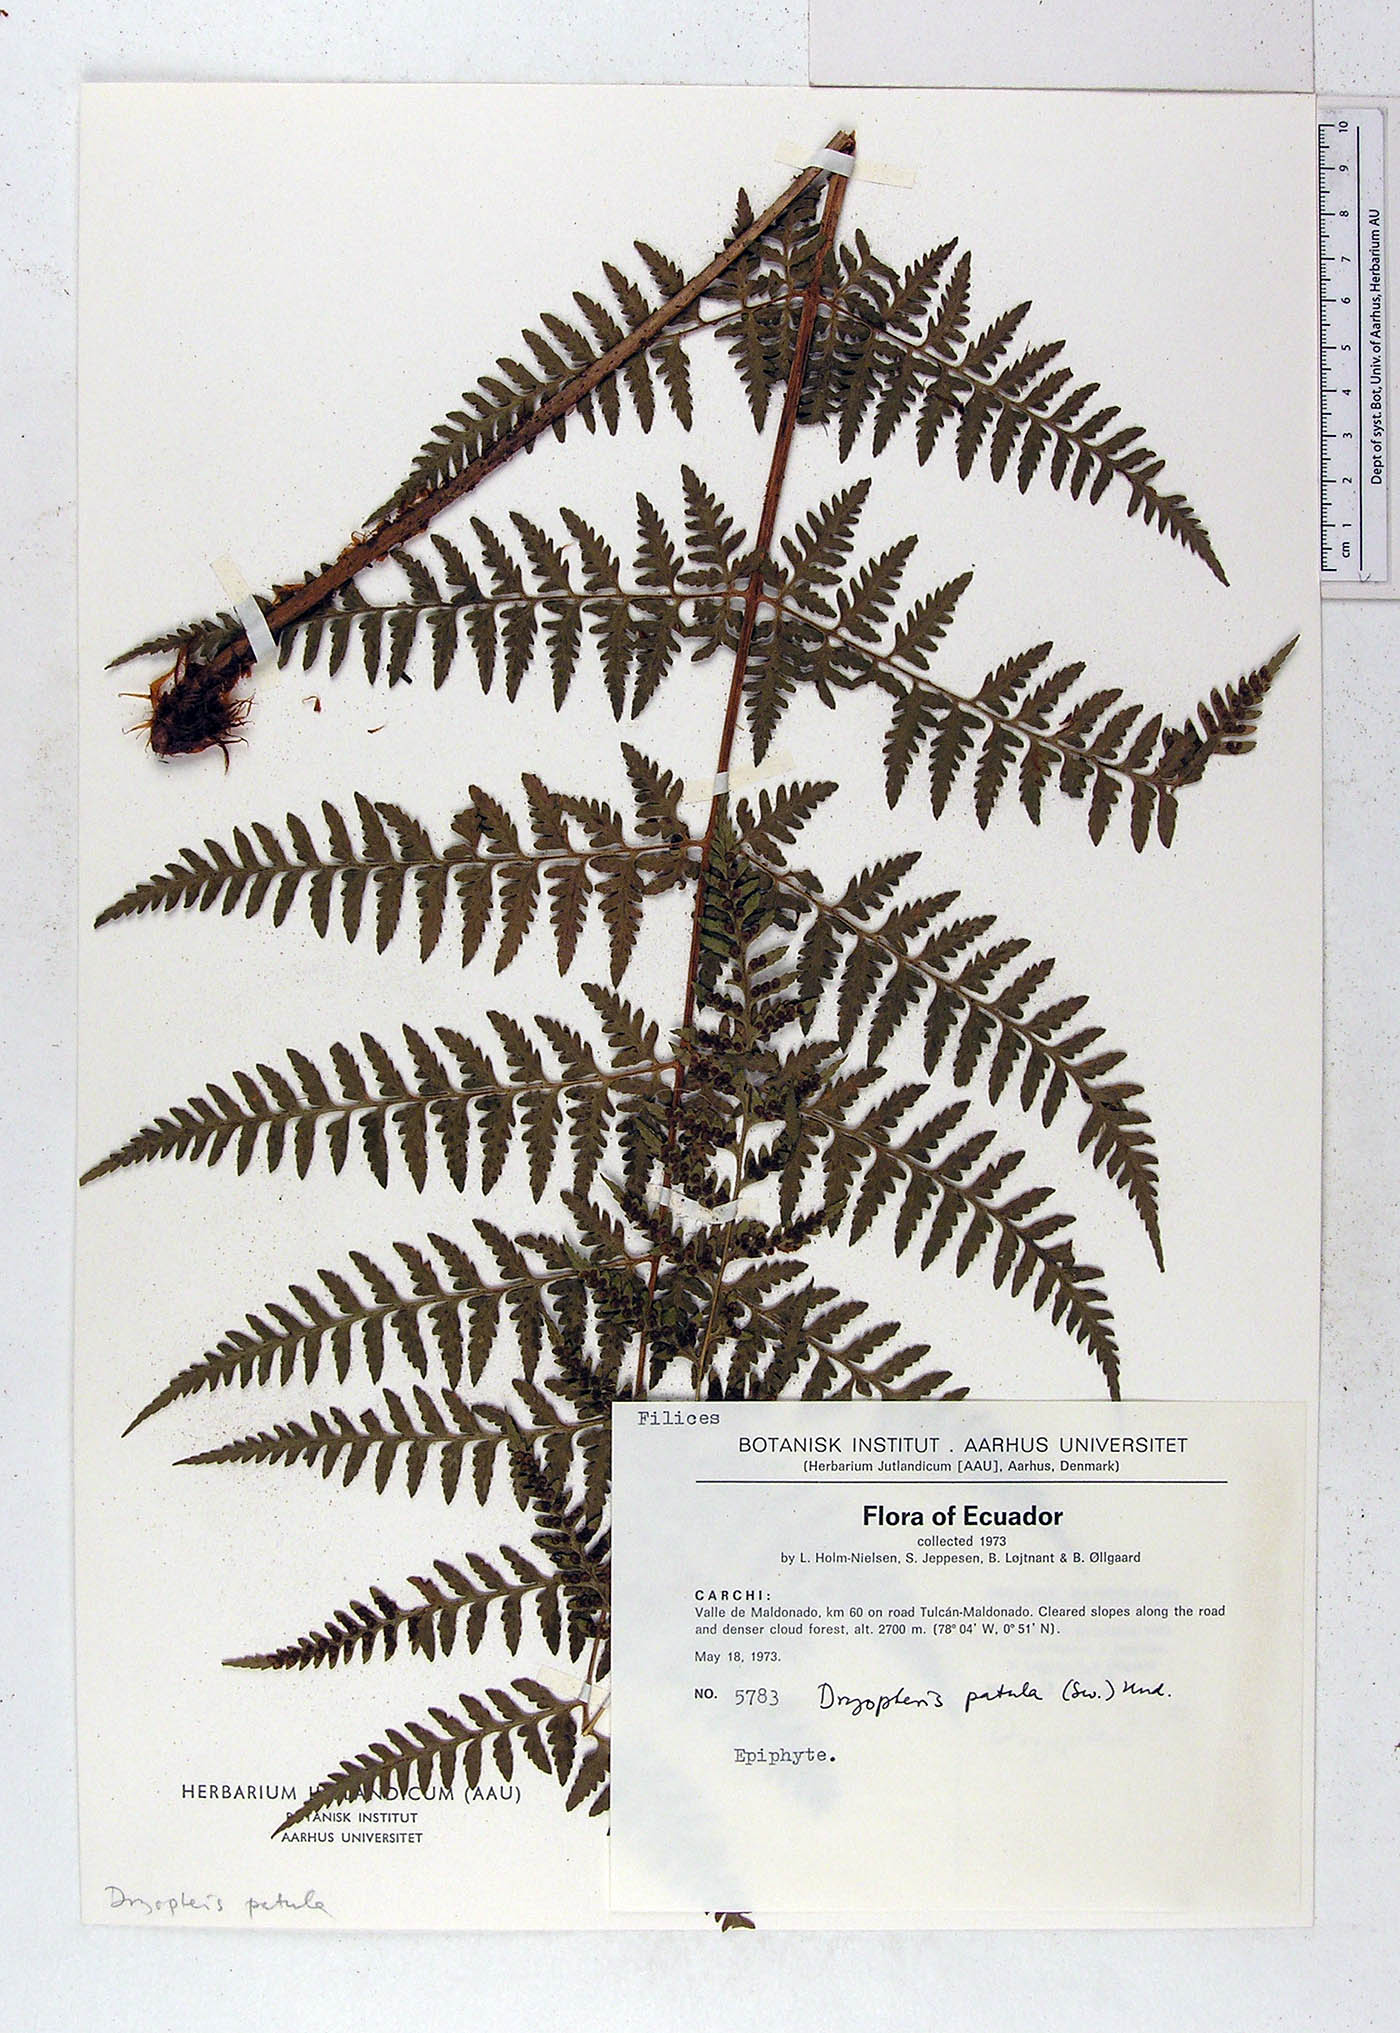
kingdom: Plantae
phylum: Tracheophyta
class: Polypodiopsida
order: Polypodiales
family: Dryopteridaceae
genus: Dryopteris
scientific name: Dryopteris patula
